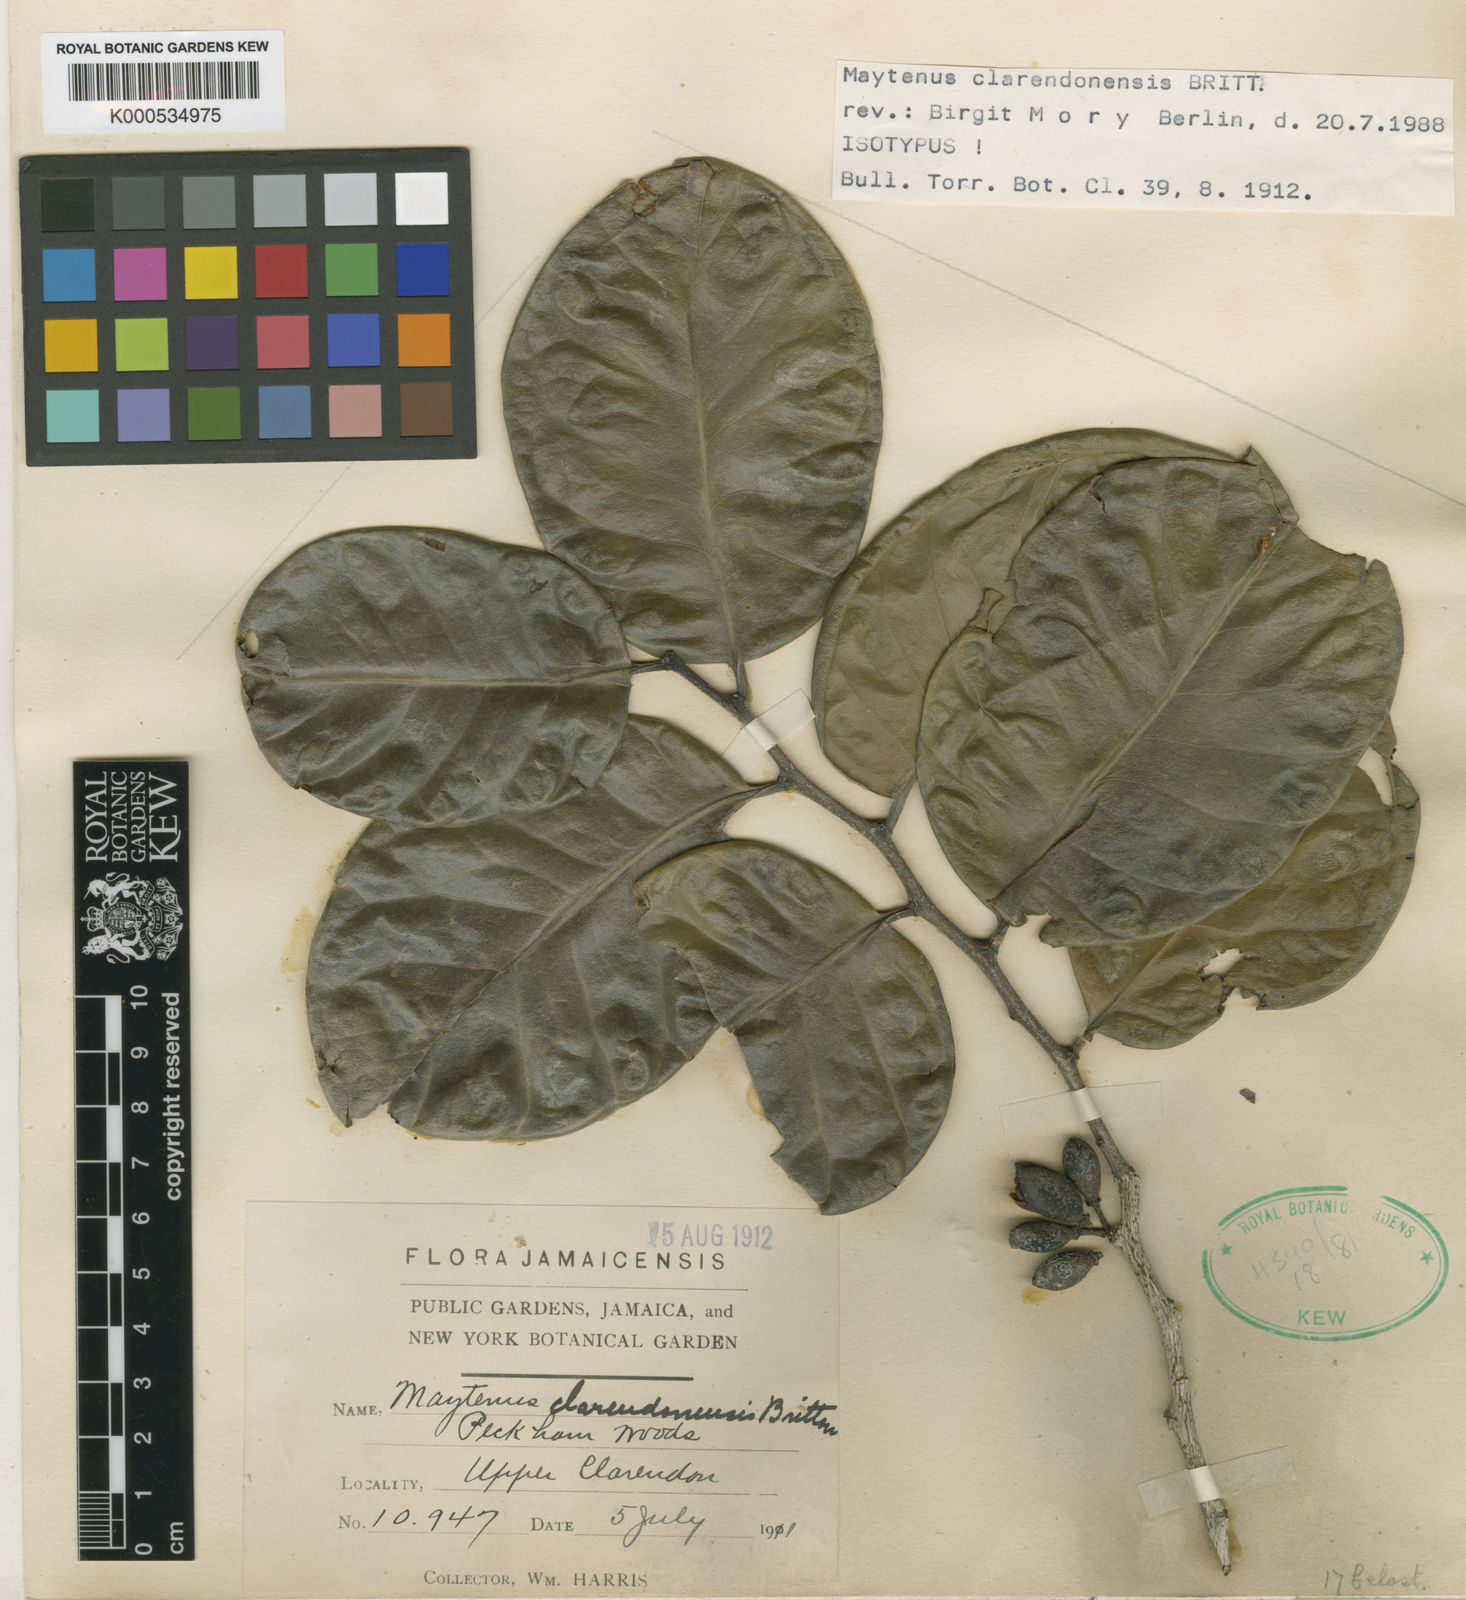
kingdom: Plantae
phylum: Tracheophyta
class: Magnoliopsida
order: Celastrales
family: Celastraceae
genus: Monteverdia
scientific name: Monteverdia clarendonensis
